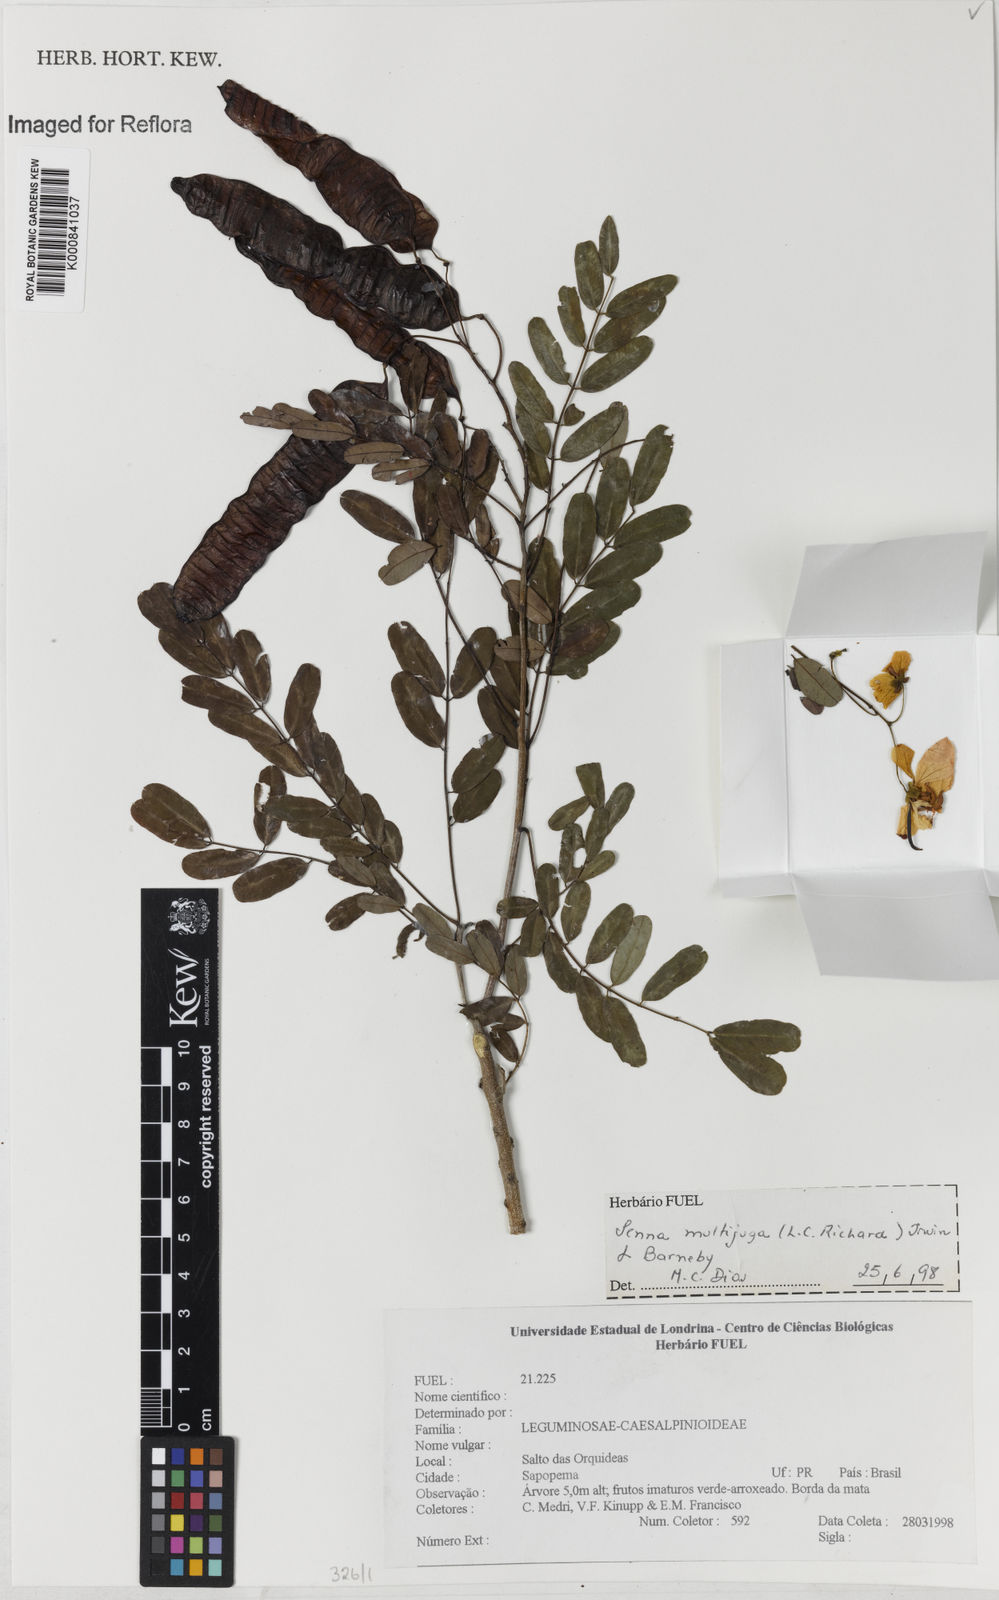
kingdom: Plantae
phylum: Tracheophyta
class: Magnoliopsida
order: Fabales
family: Fabaceae
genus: Senna
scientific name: Senna multijuga
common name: False sicklepod
